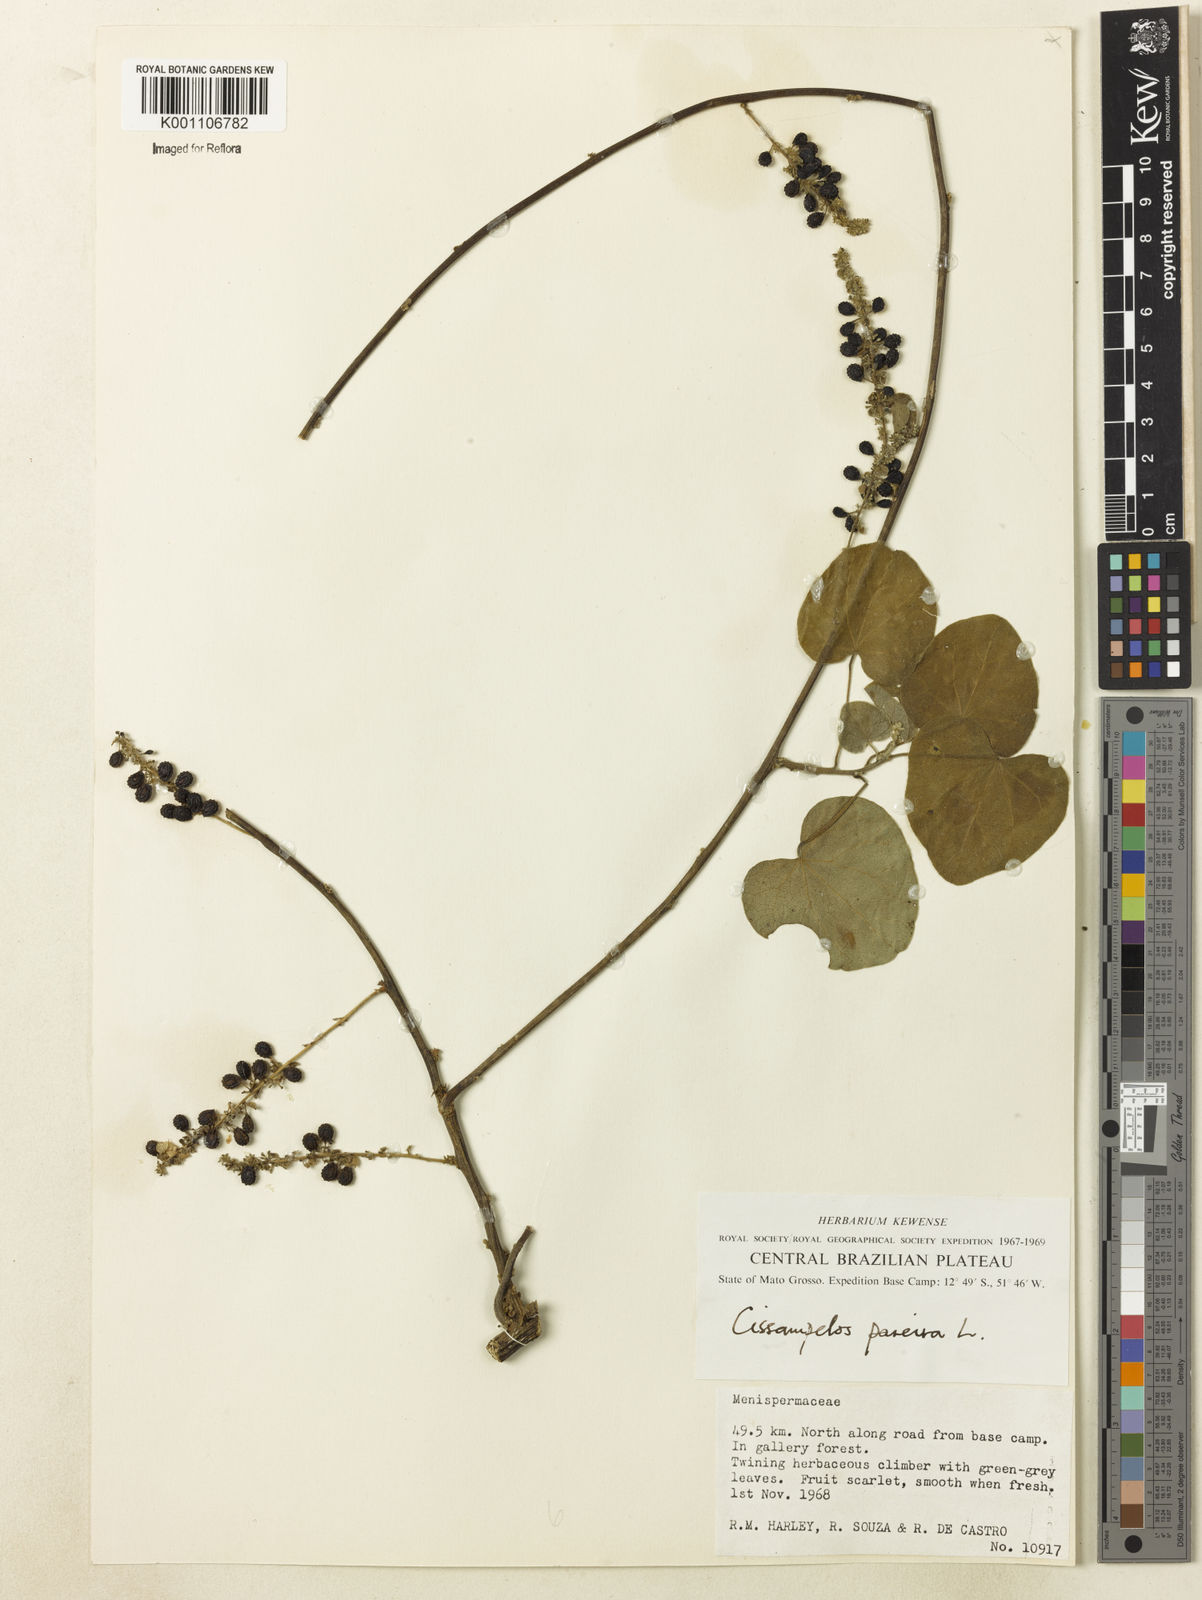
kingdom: Plantae
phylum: Tracheophyta
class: Magnoliopsida
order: Ranunculales
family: Menispermaceae
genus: Cissampelos
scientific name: Cissampelos pareira
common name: Velvetleaf
